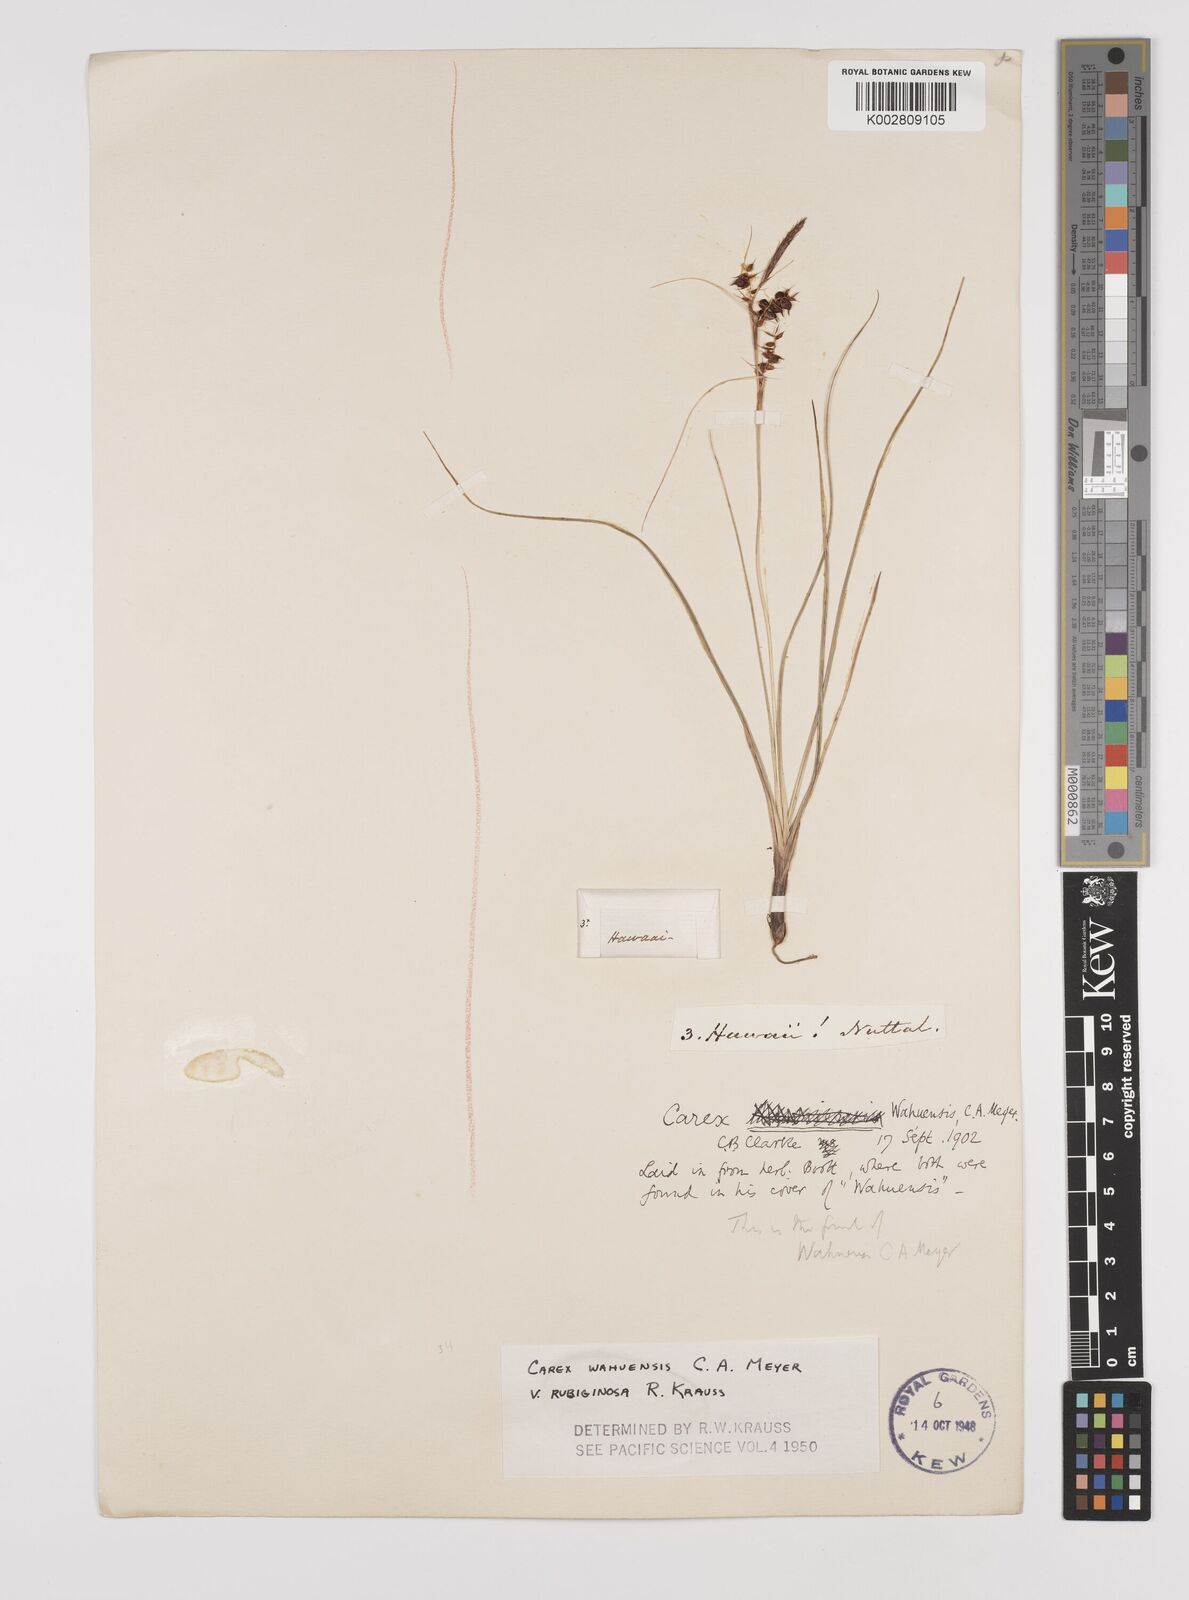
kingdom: Plantae
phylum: Tracheophyta
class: Liliopsida
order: Poales
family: Cyperaceae
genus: Carex
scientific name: Carex wahuensis
